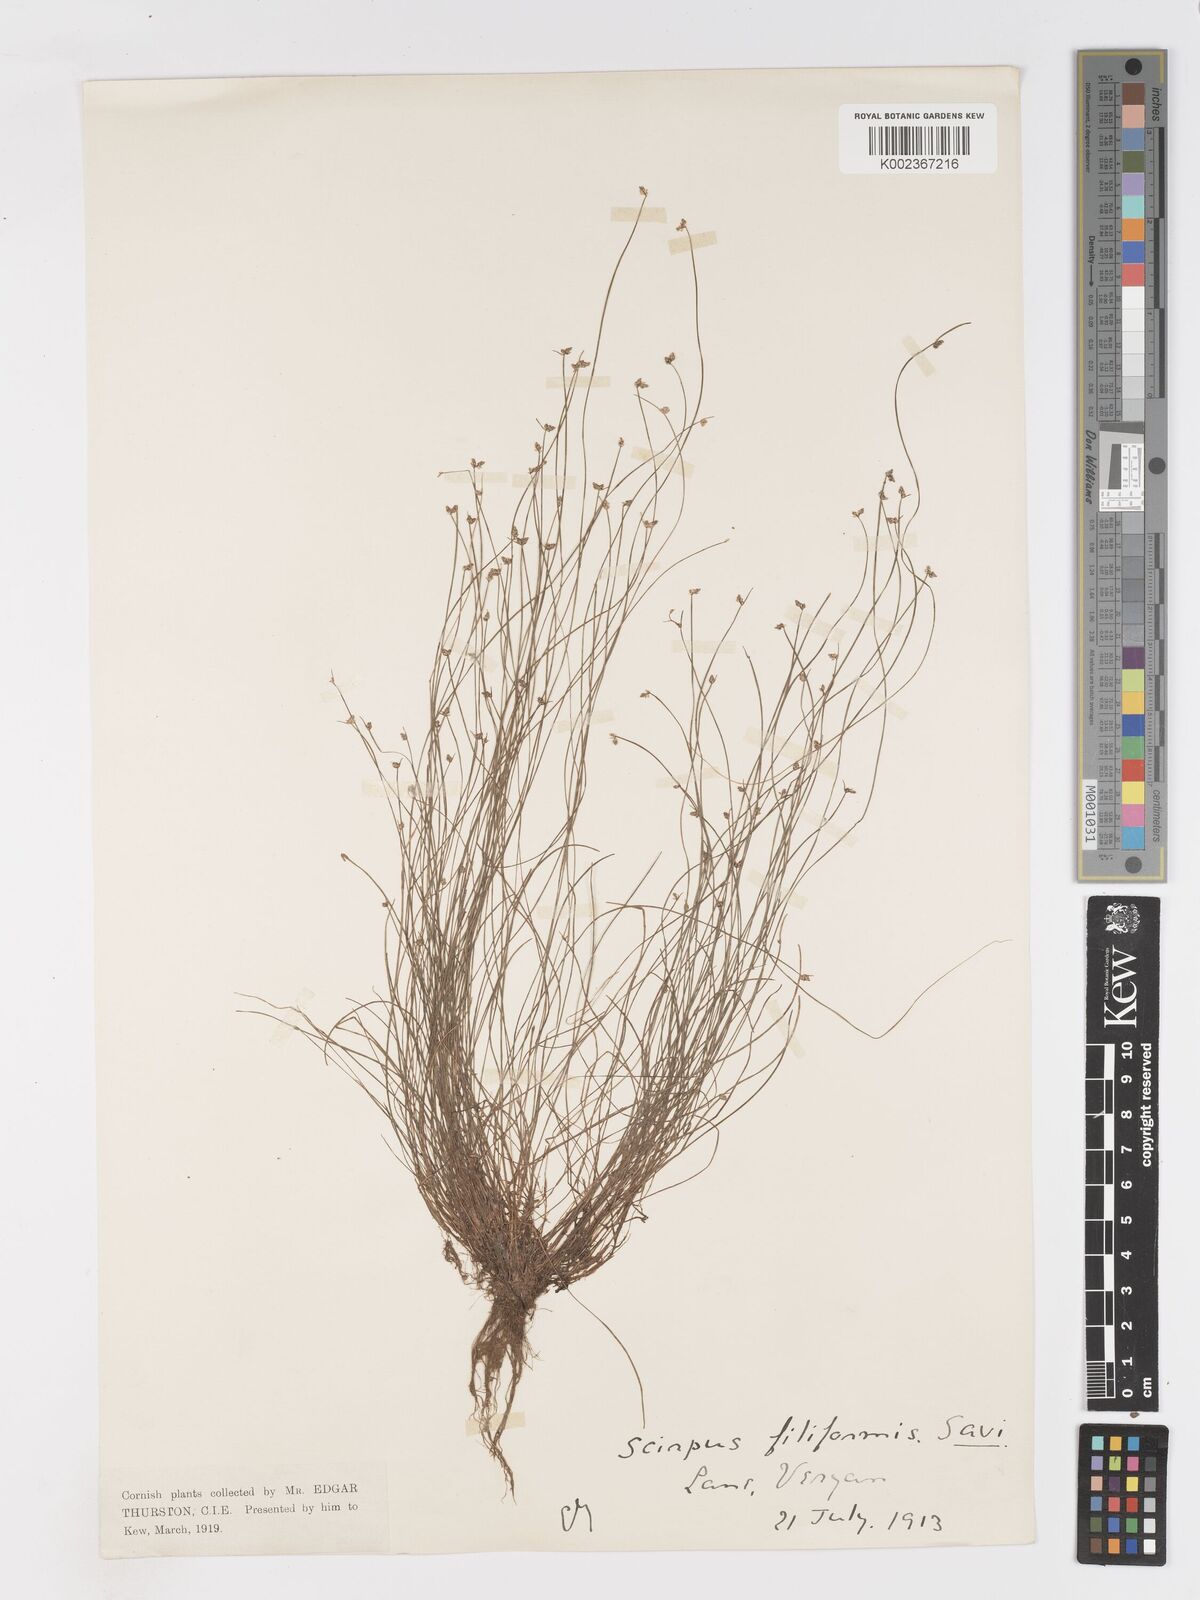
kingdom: Plantae
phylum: Tracheophyta
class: Liliopsida
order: Poales
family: Cyperaceae
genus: Isolepis
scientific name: Isolepis cernua
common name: Slender club-rush
